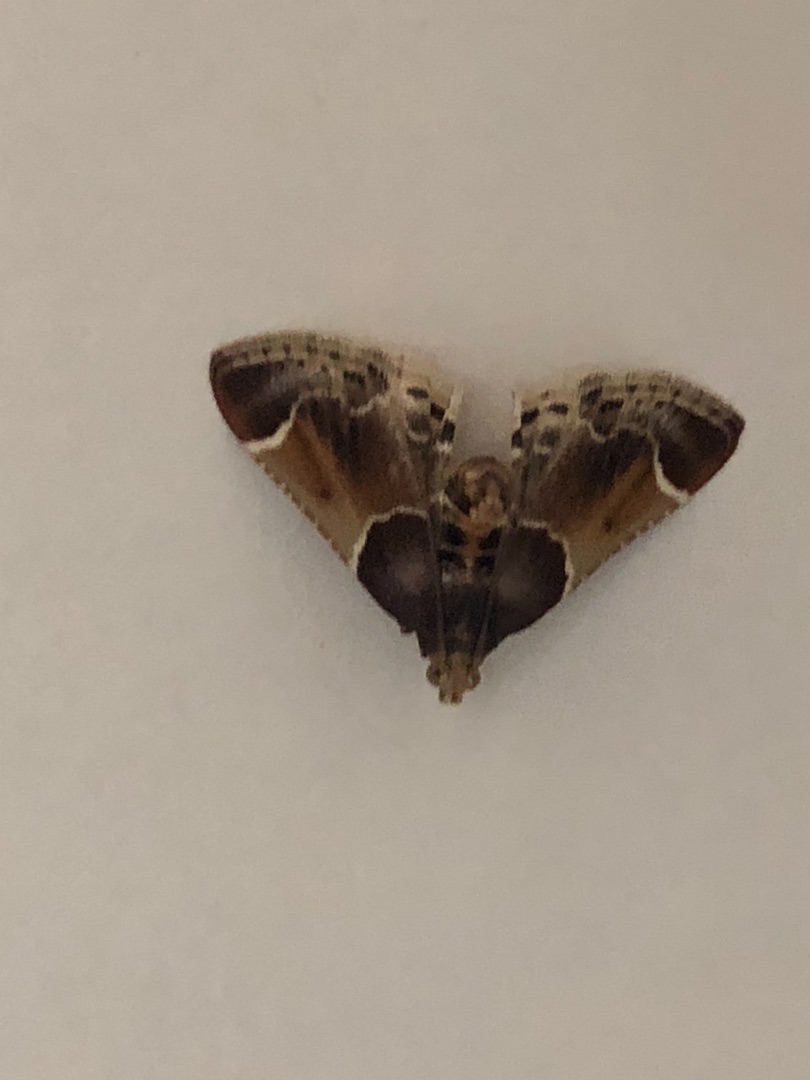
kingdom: Animalia
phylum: Arthropoda
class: Insecta
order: Lepidoptera
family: Pyralidae
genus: Pyralis
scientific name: Pyralis farinalis
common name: Stort melmøl
